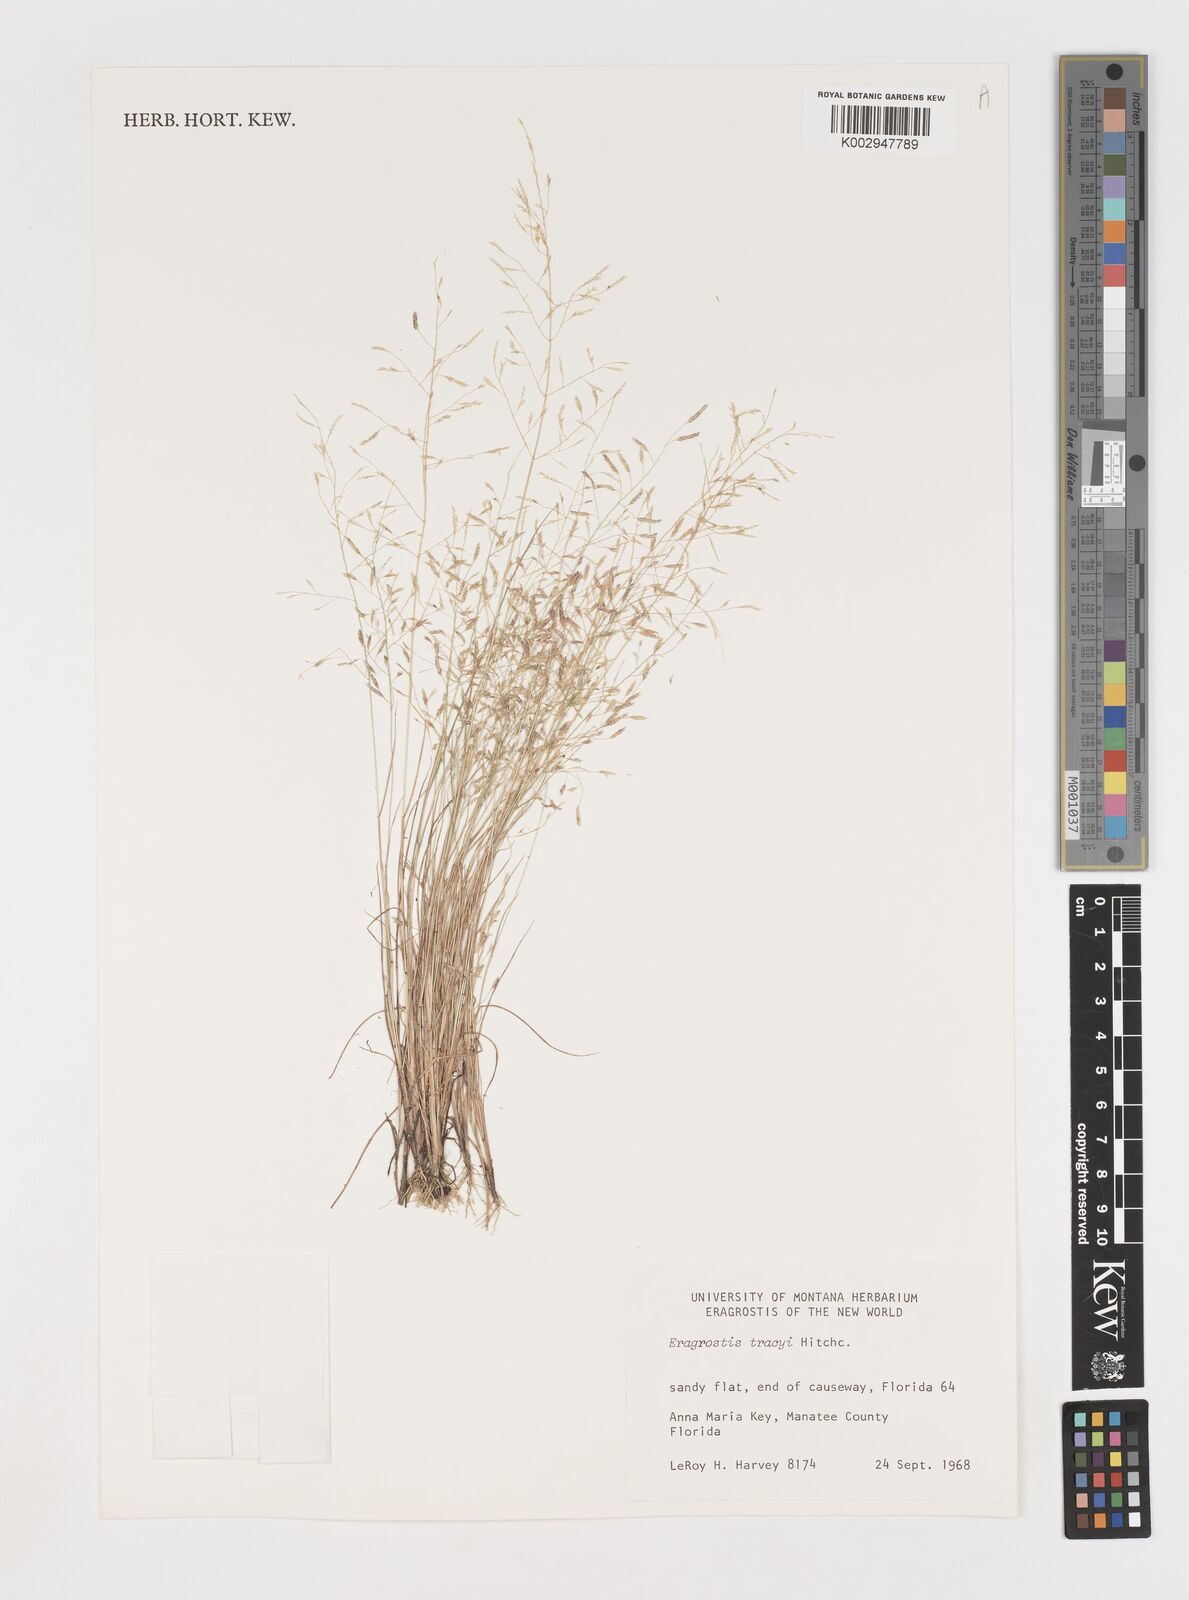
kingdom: Plantae
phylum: Tracheophyta
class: Liliopsida
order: Poales
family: Poaceae
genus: Eragrostis
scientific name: Eragrostis pectinacea
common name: Tufted lovegrass
